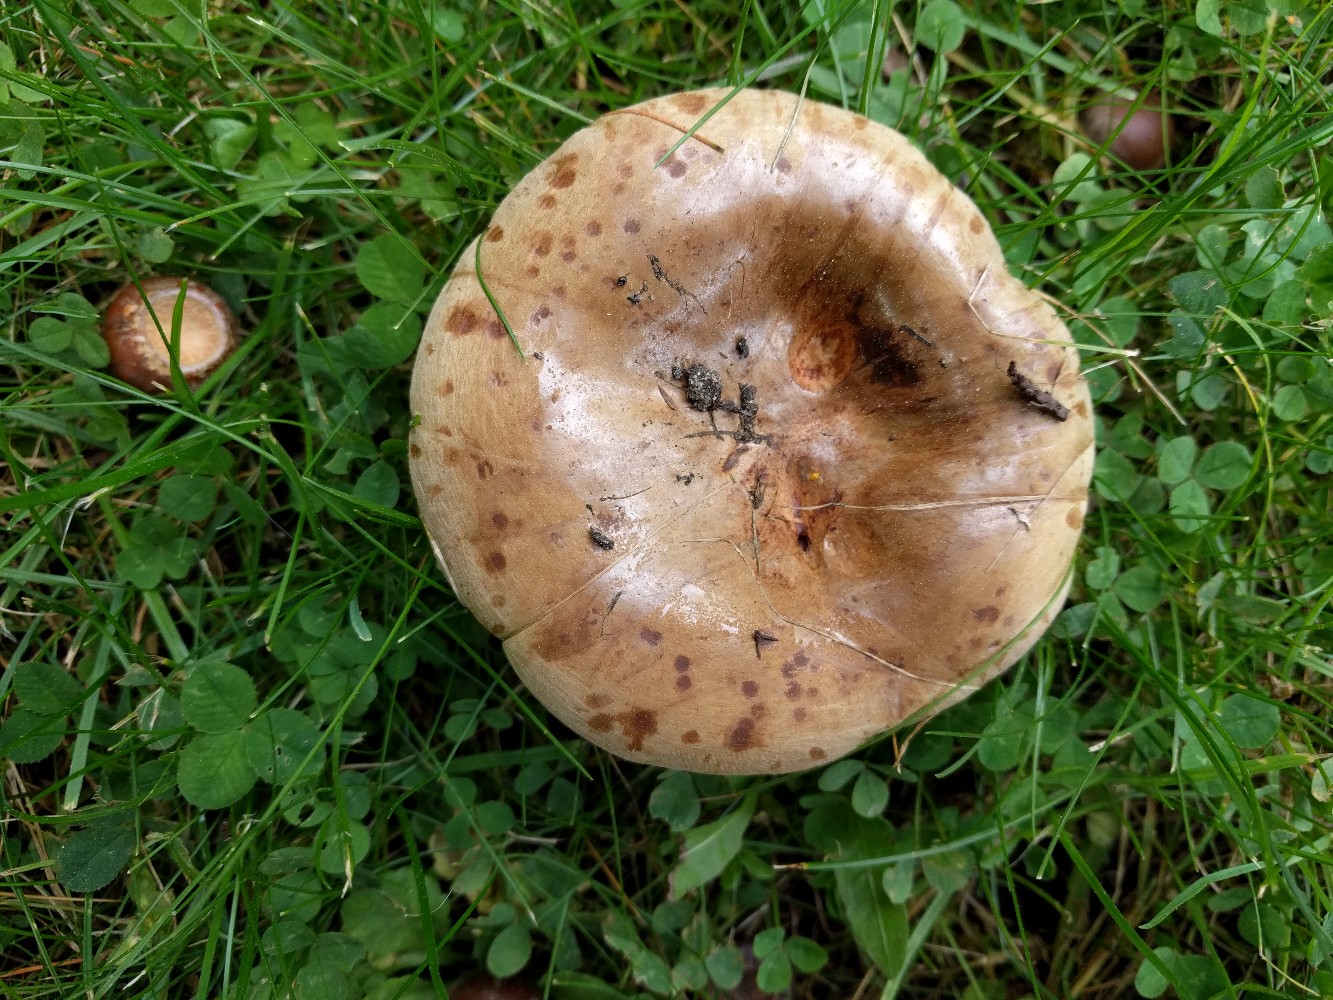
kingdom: Fungi
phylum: Basidiomycota
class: Agaricomycetes
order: Boletales
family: Paxillaceae
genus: Paxillus
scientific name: Paxillus ammoniavirescens
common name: olivensporet netbladhat
